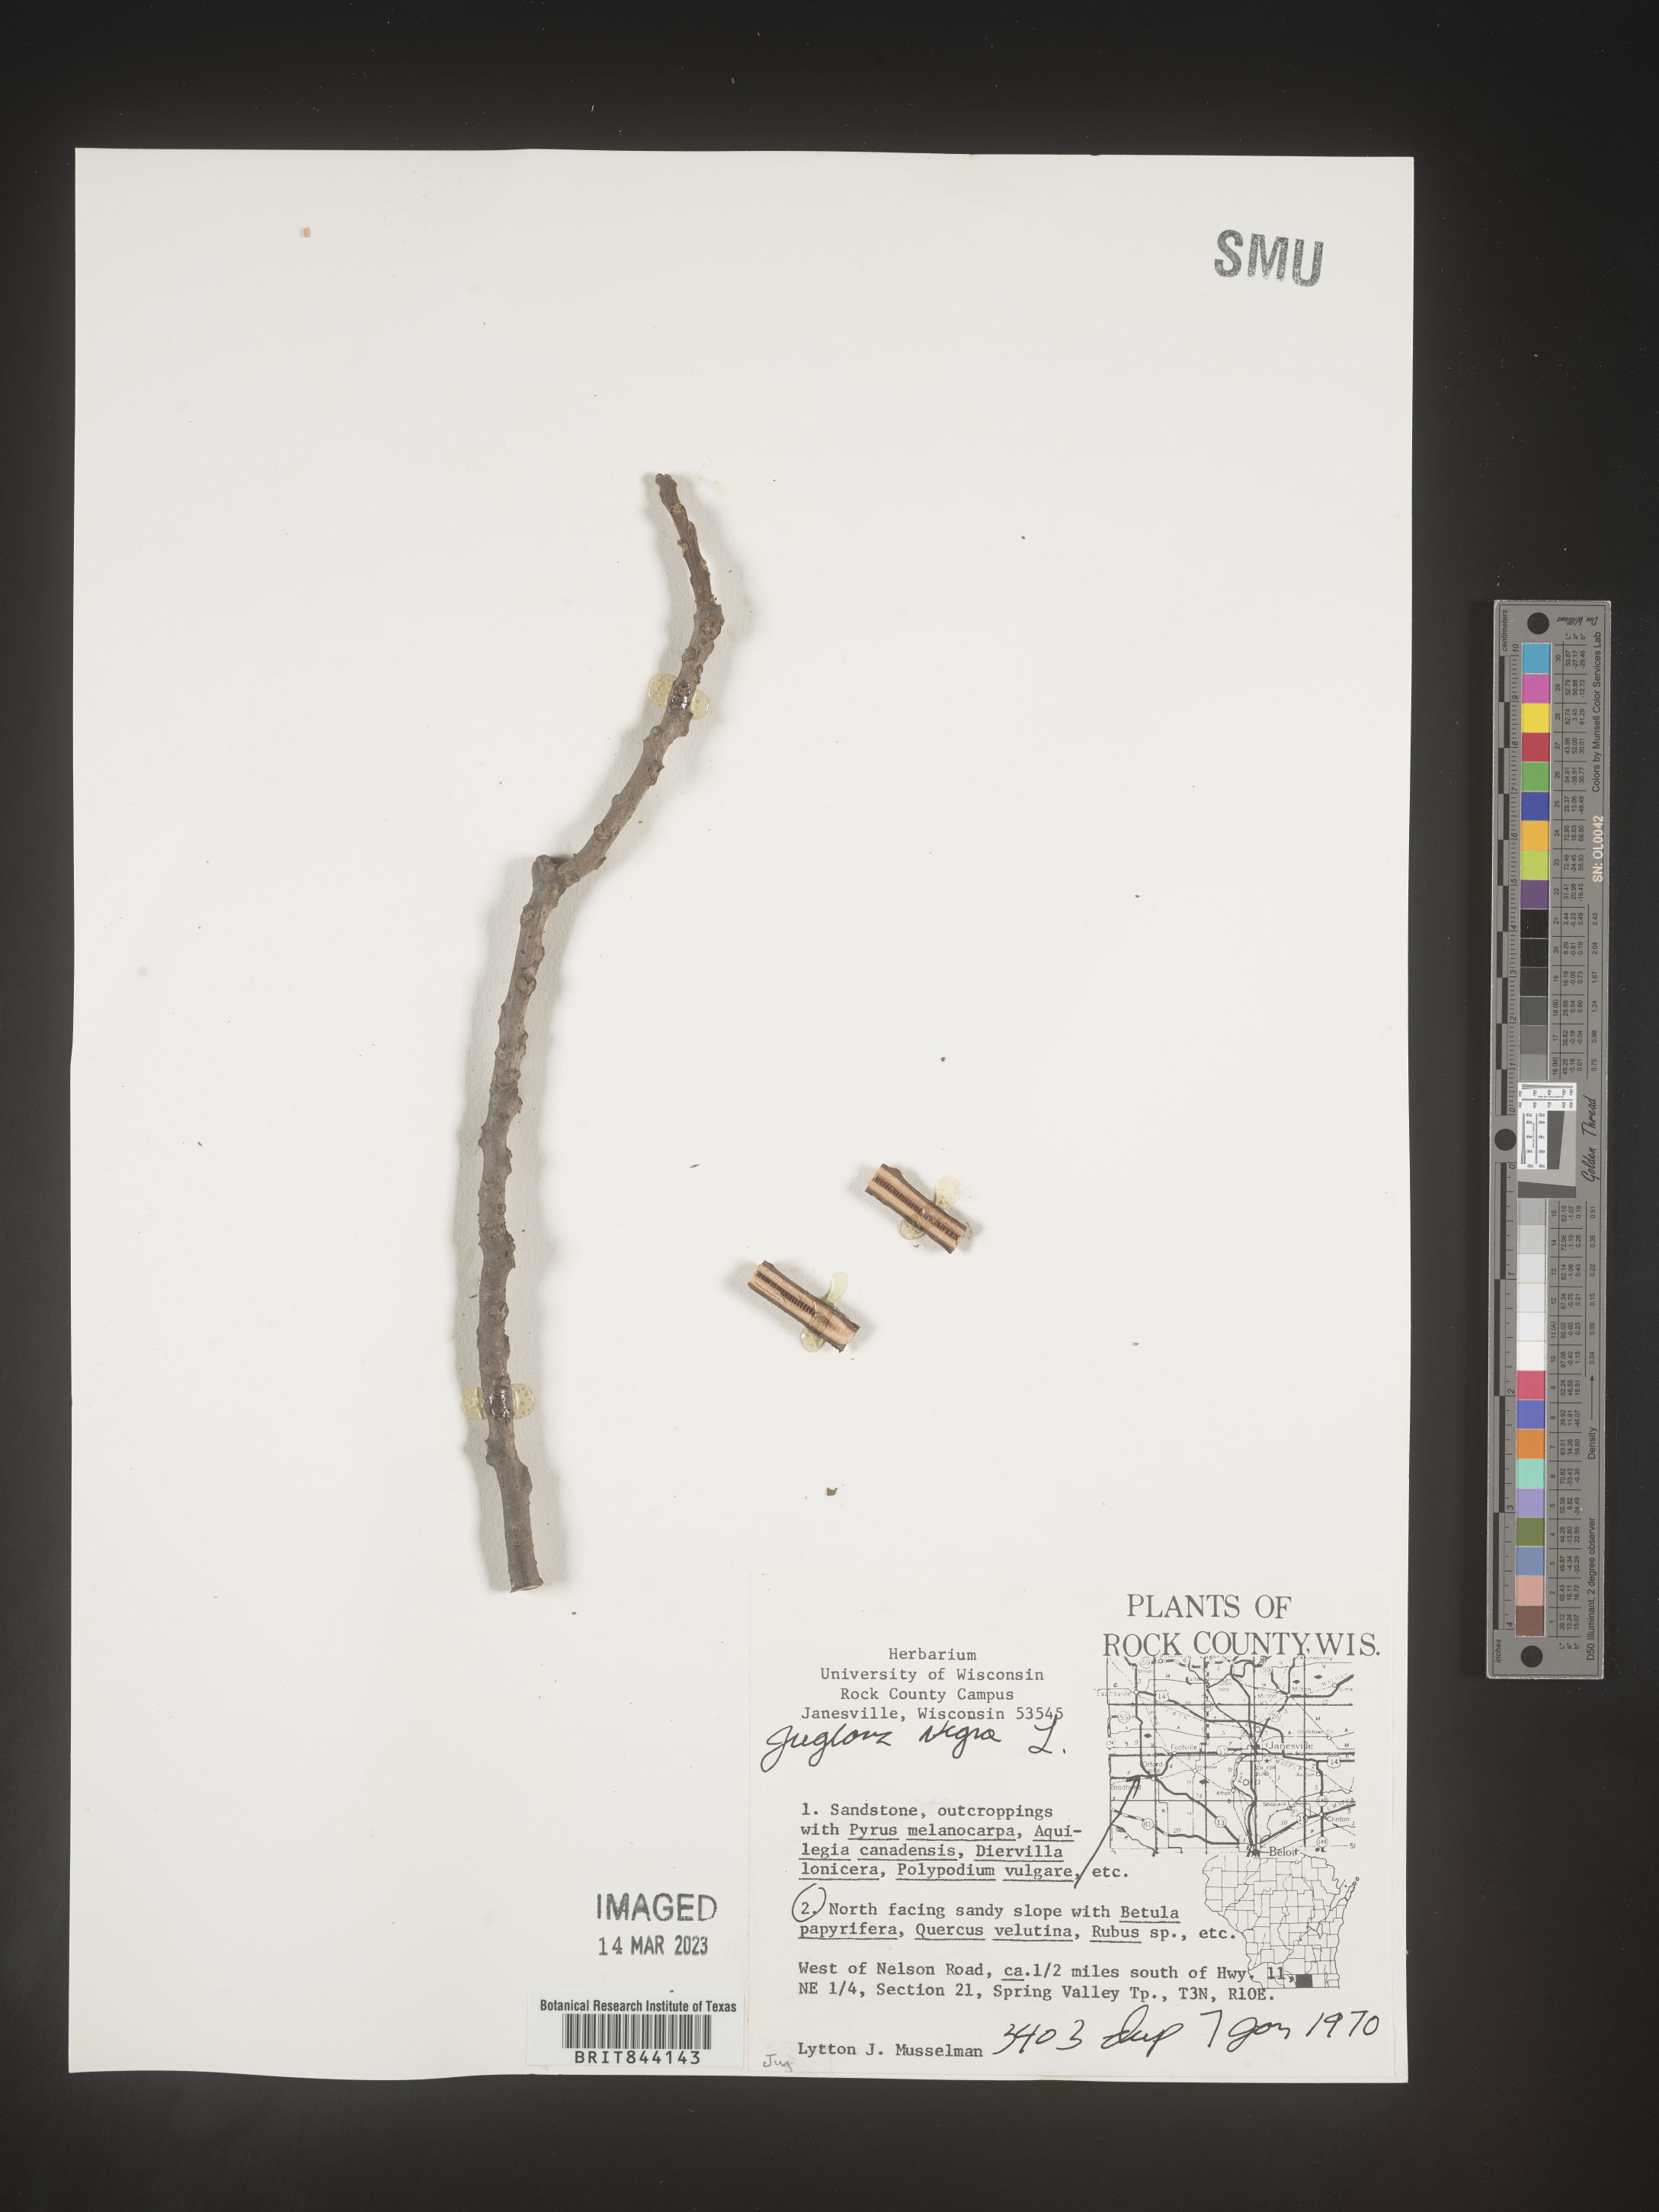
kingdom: Plantae
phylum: Tracheophyta
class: Magnoliopsida
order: Fagales
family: Juglandaceae
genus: Juglans
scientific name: Juglans nigra
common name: Black walnut
